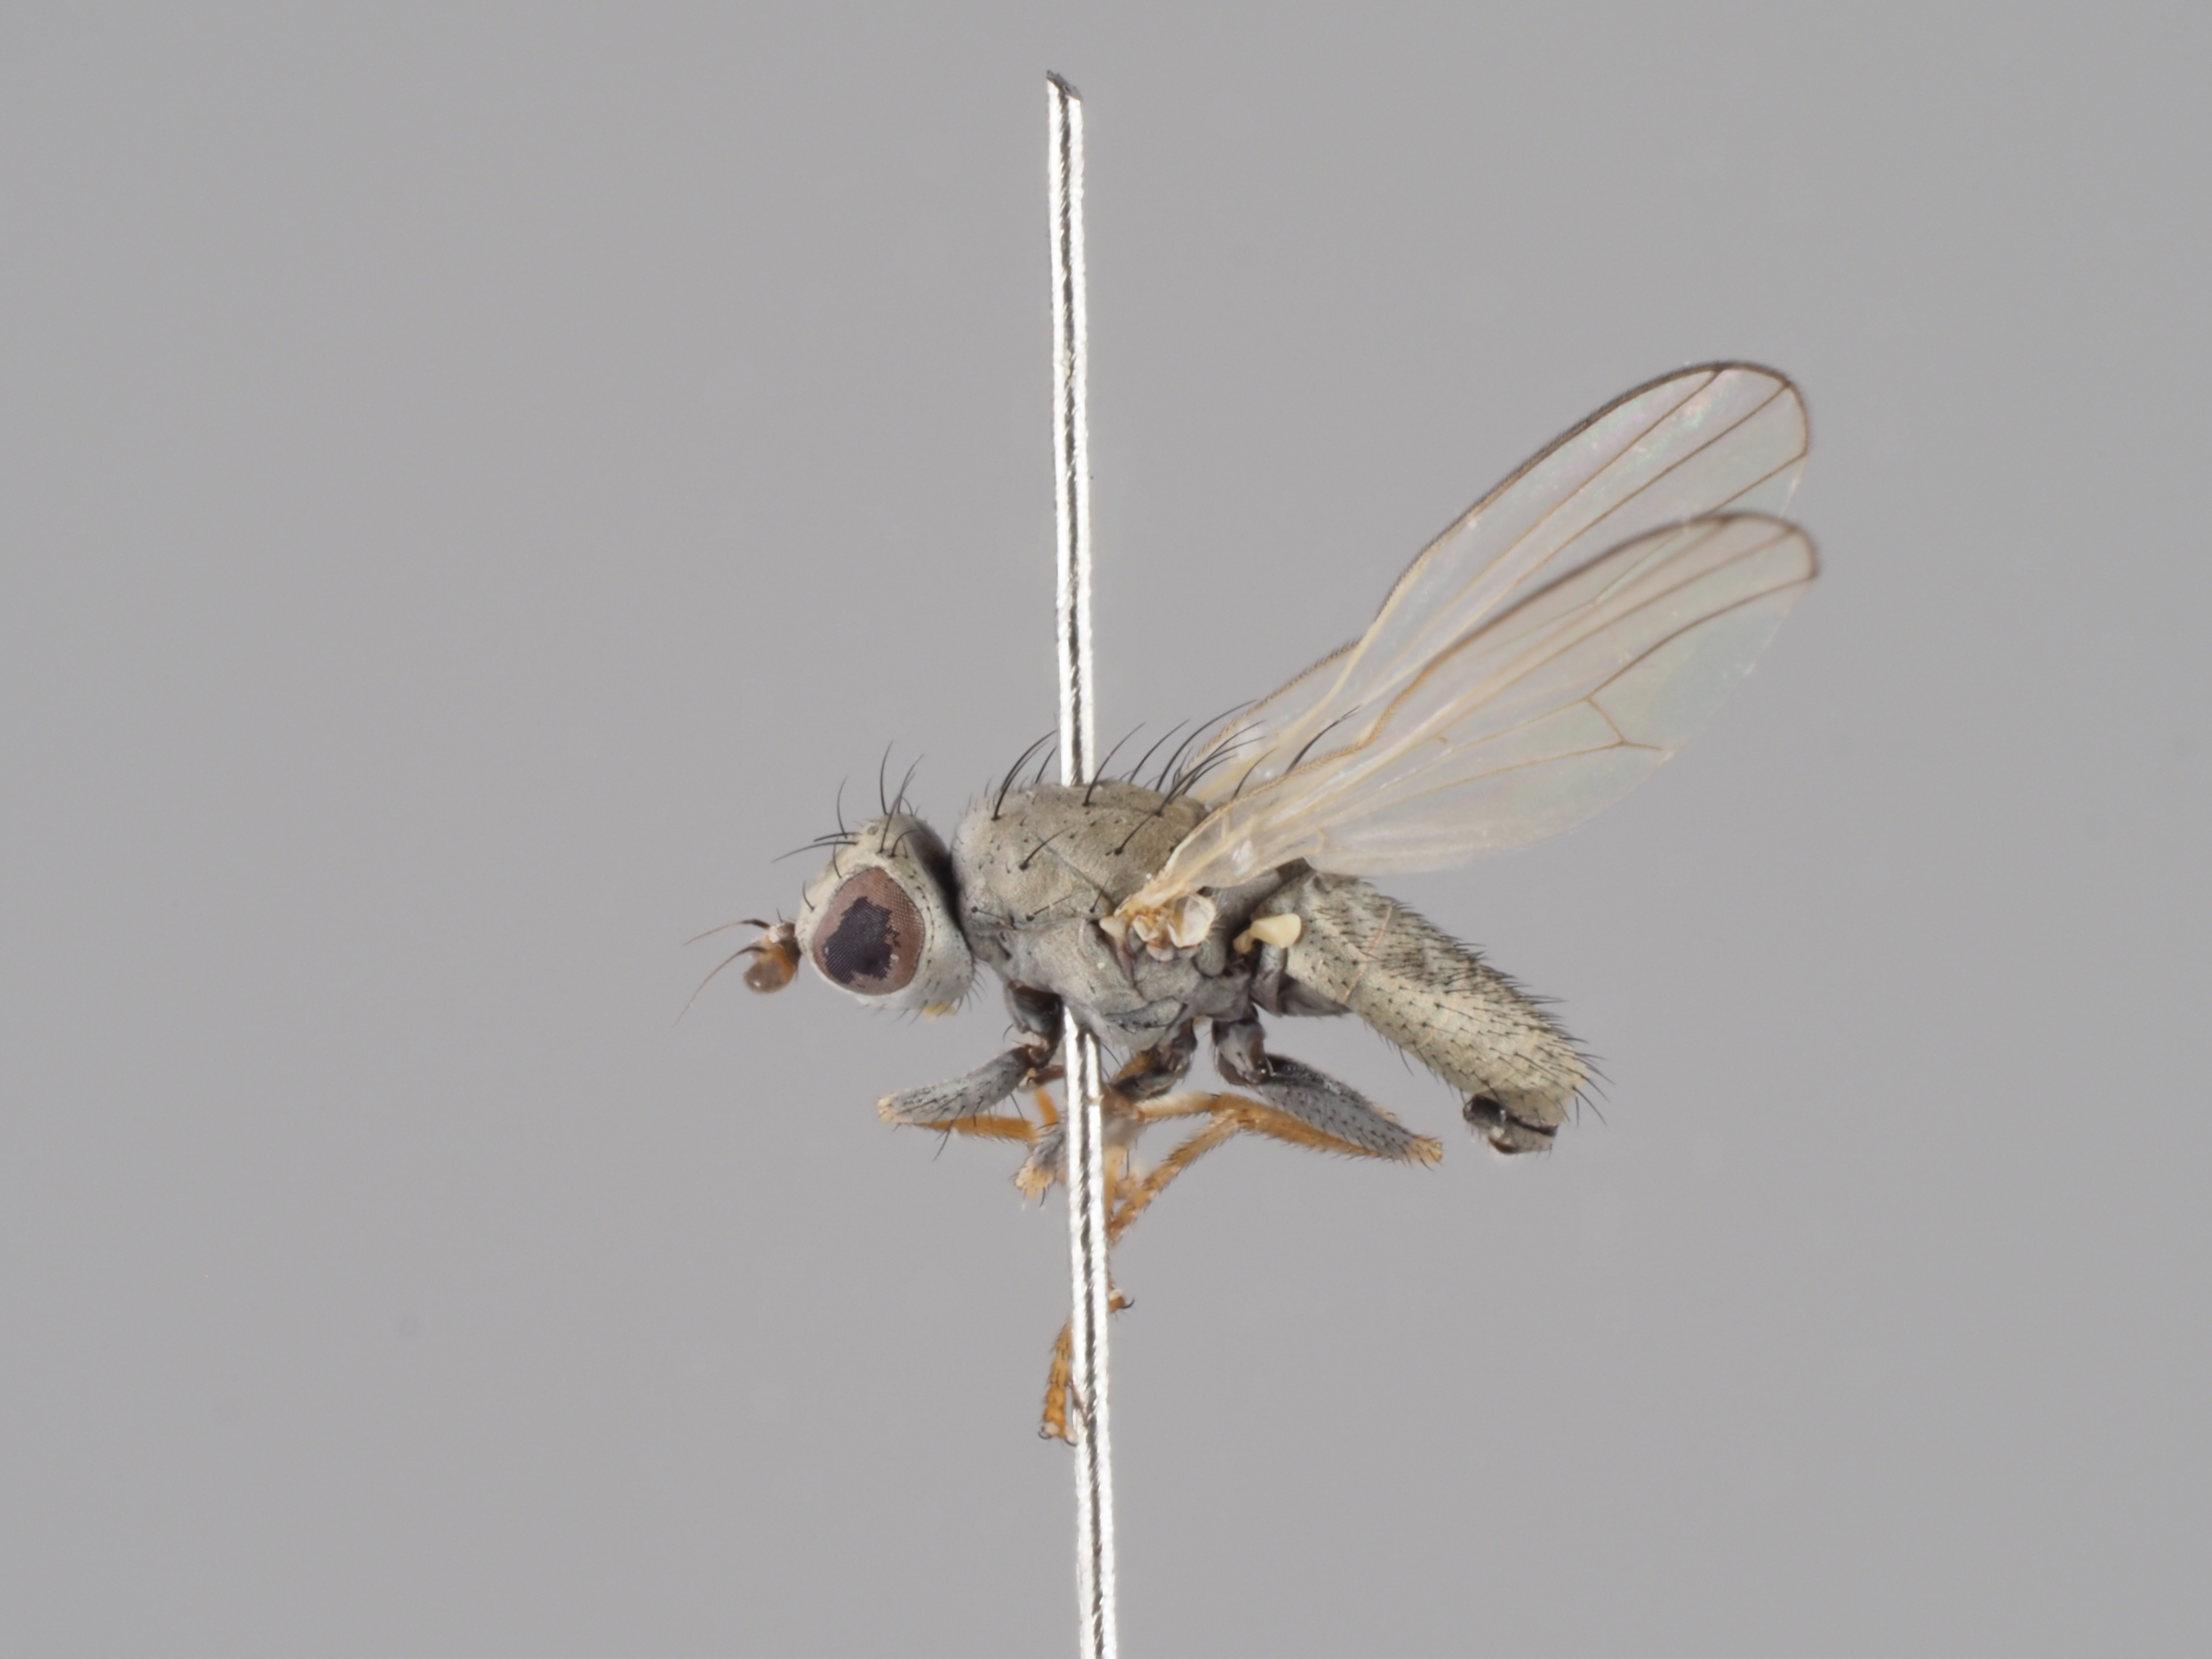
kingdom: Animalia
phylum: Arthropoda
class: Insecta
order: Diptera
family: Chamaemyiidae
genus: Chamaemyia
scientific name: Chamaemyia flavipalpis
